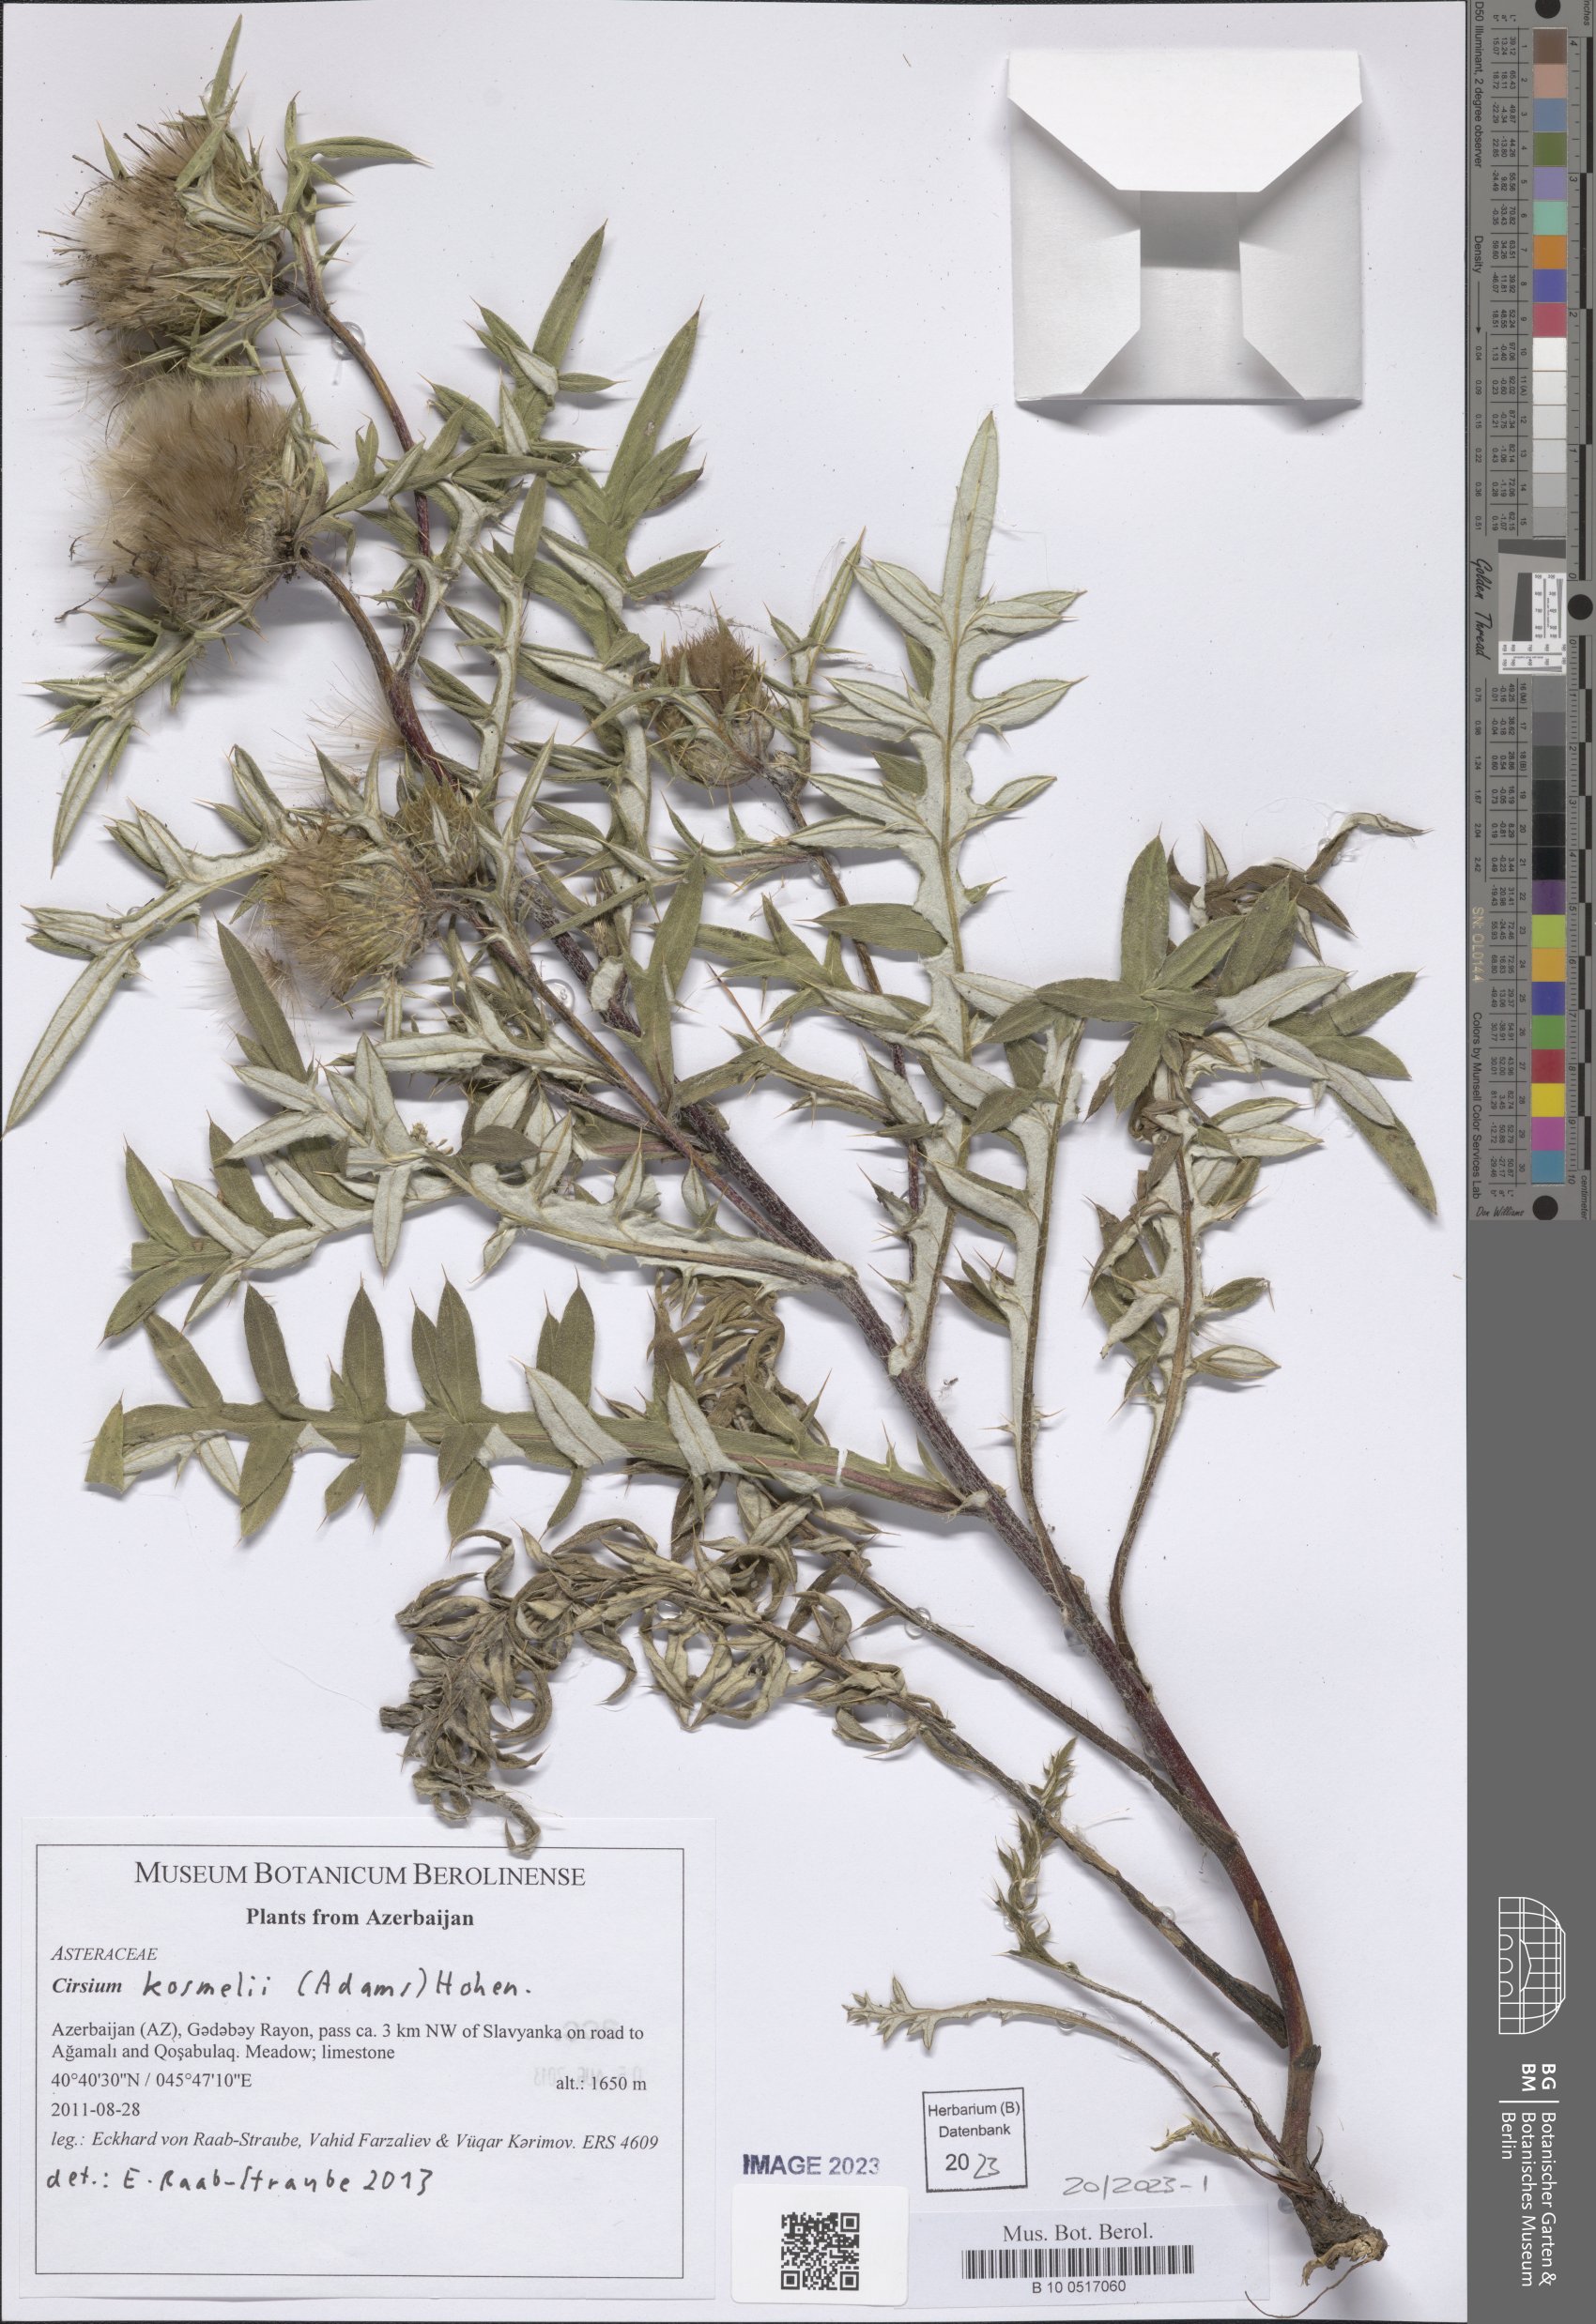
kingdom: Plantae
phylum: Tracheophyta
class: Magnoliopsida
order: Asterales
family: Asteraceae
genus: Lophiolepis
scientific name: Lophiolepis kosmelii
